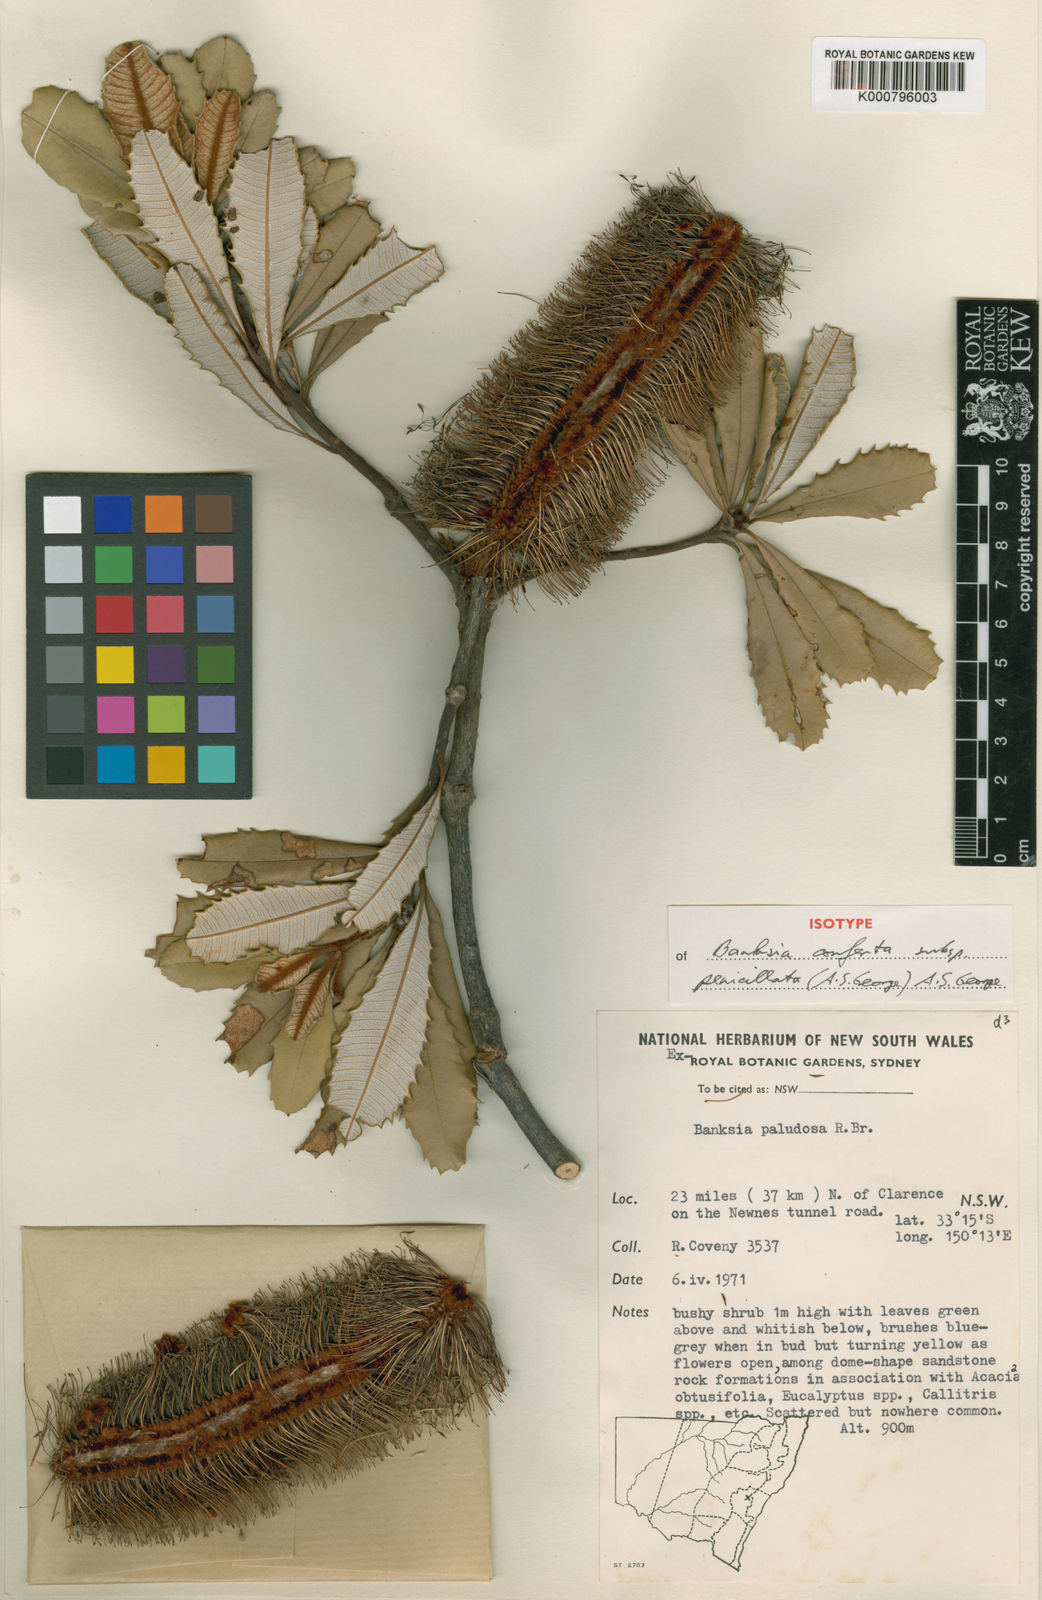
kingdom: Plantae
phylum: Tracheophyta
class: Magnoliopsida
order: Proteales
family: Proteaceae
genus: Banksia
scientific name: Banksia conferta
